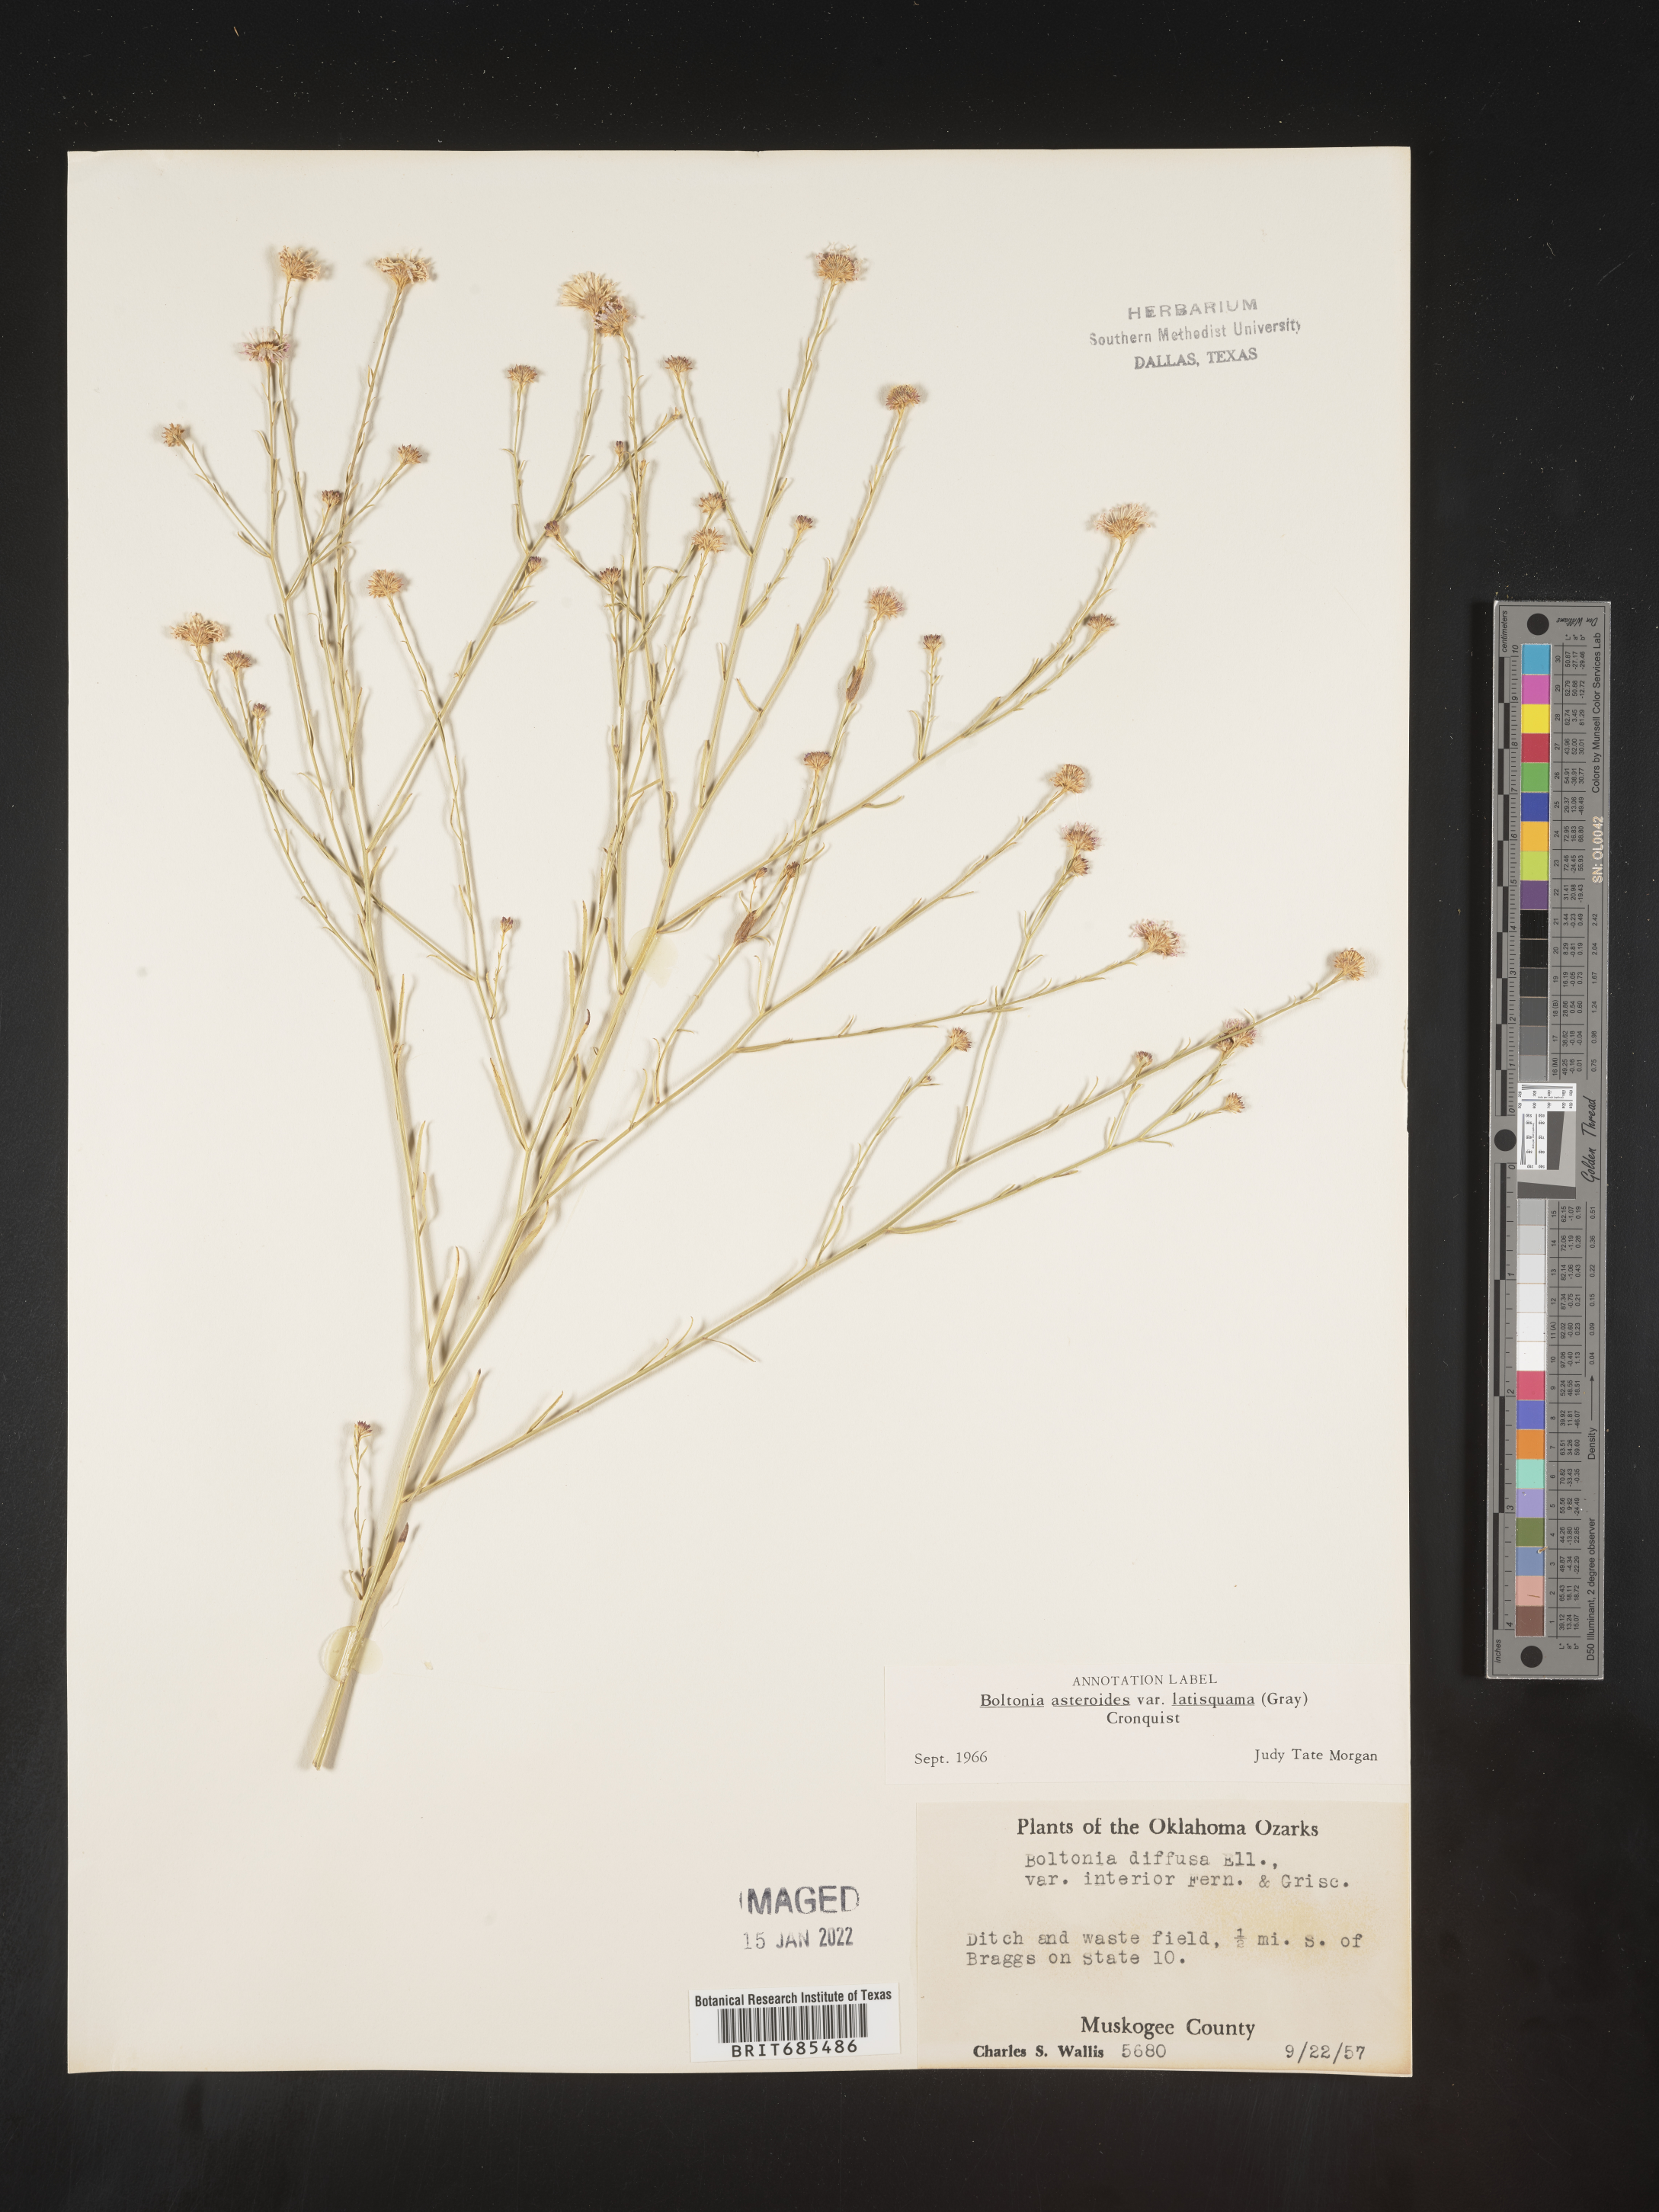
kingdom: Plantae
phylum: Tracheophyta
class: Magnoliopsida
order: Asterales
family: Asteraceae
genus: Boltonia
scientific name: Boltonia asteroides
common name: False chamomile
